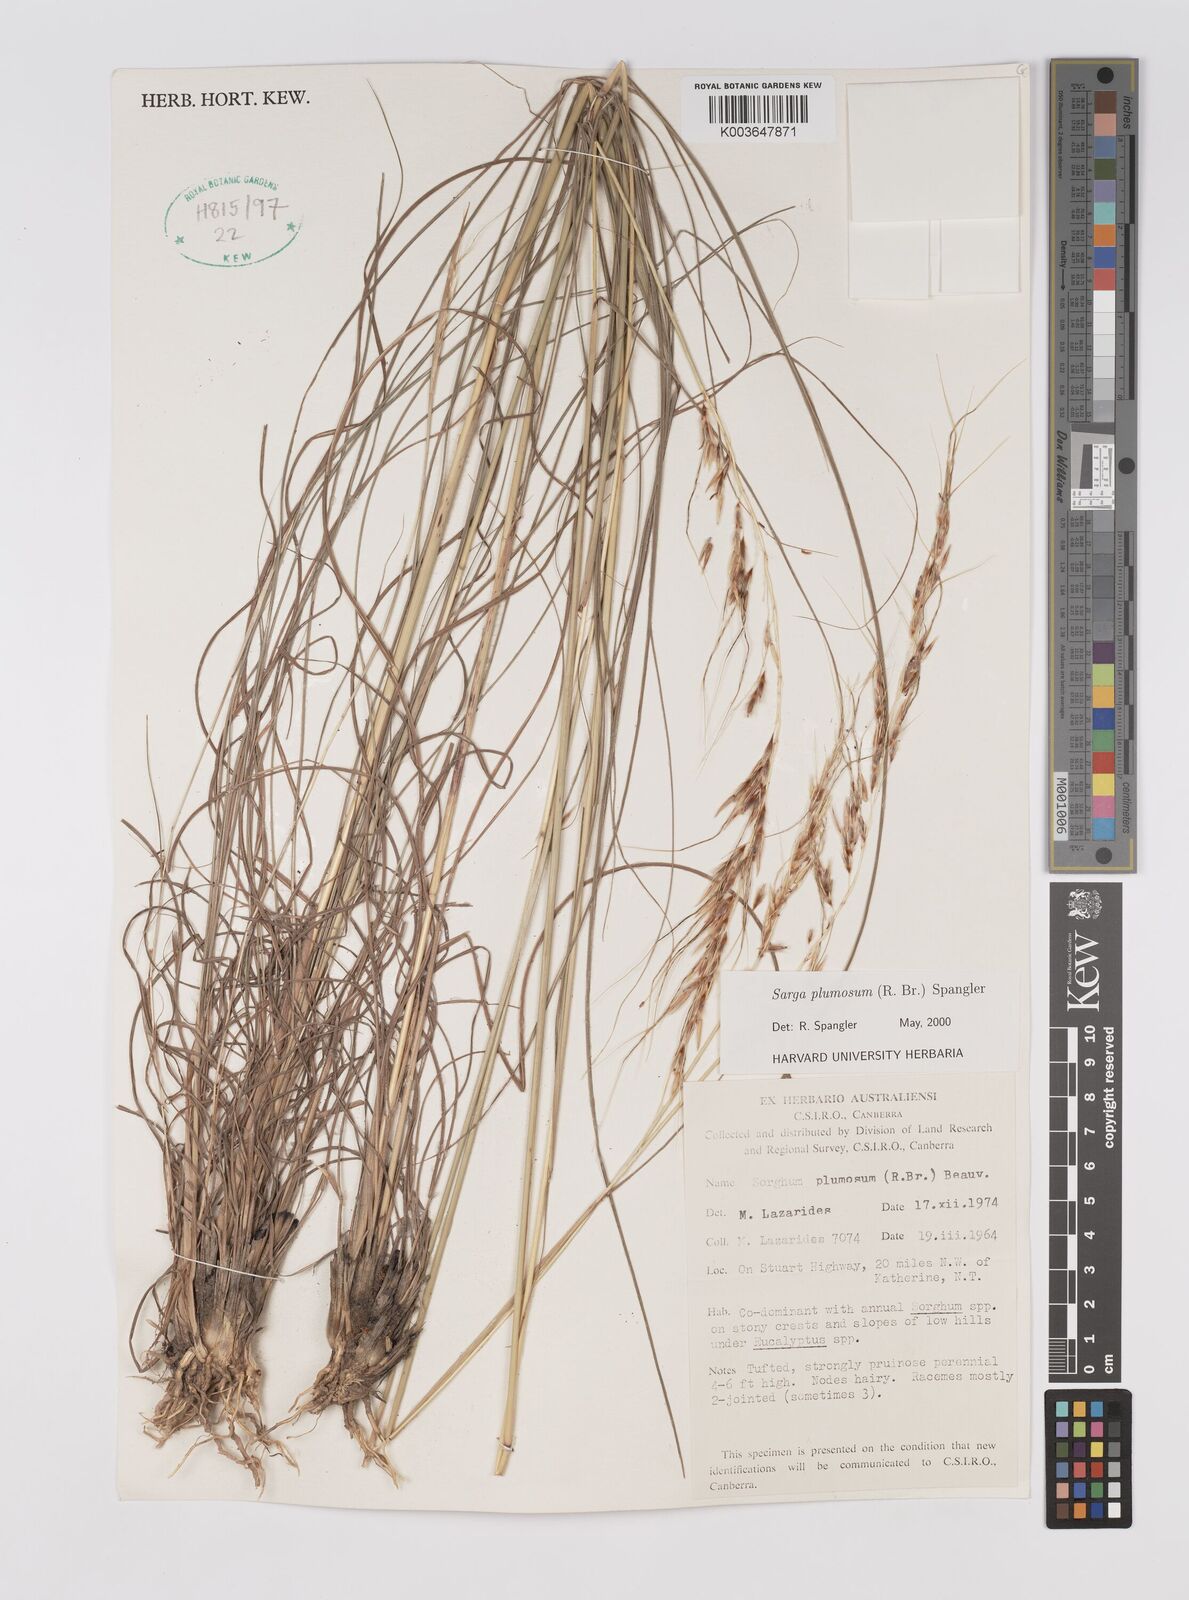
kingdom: Plantae
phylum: Tracheophyta
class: Liliopsida
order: Poales
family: Poaceae
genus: Sarga
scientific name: Sarga plumosa
